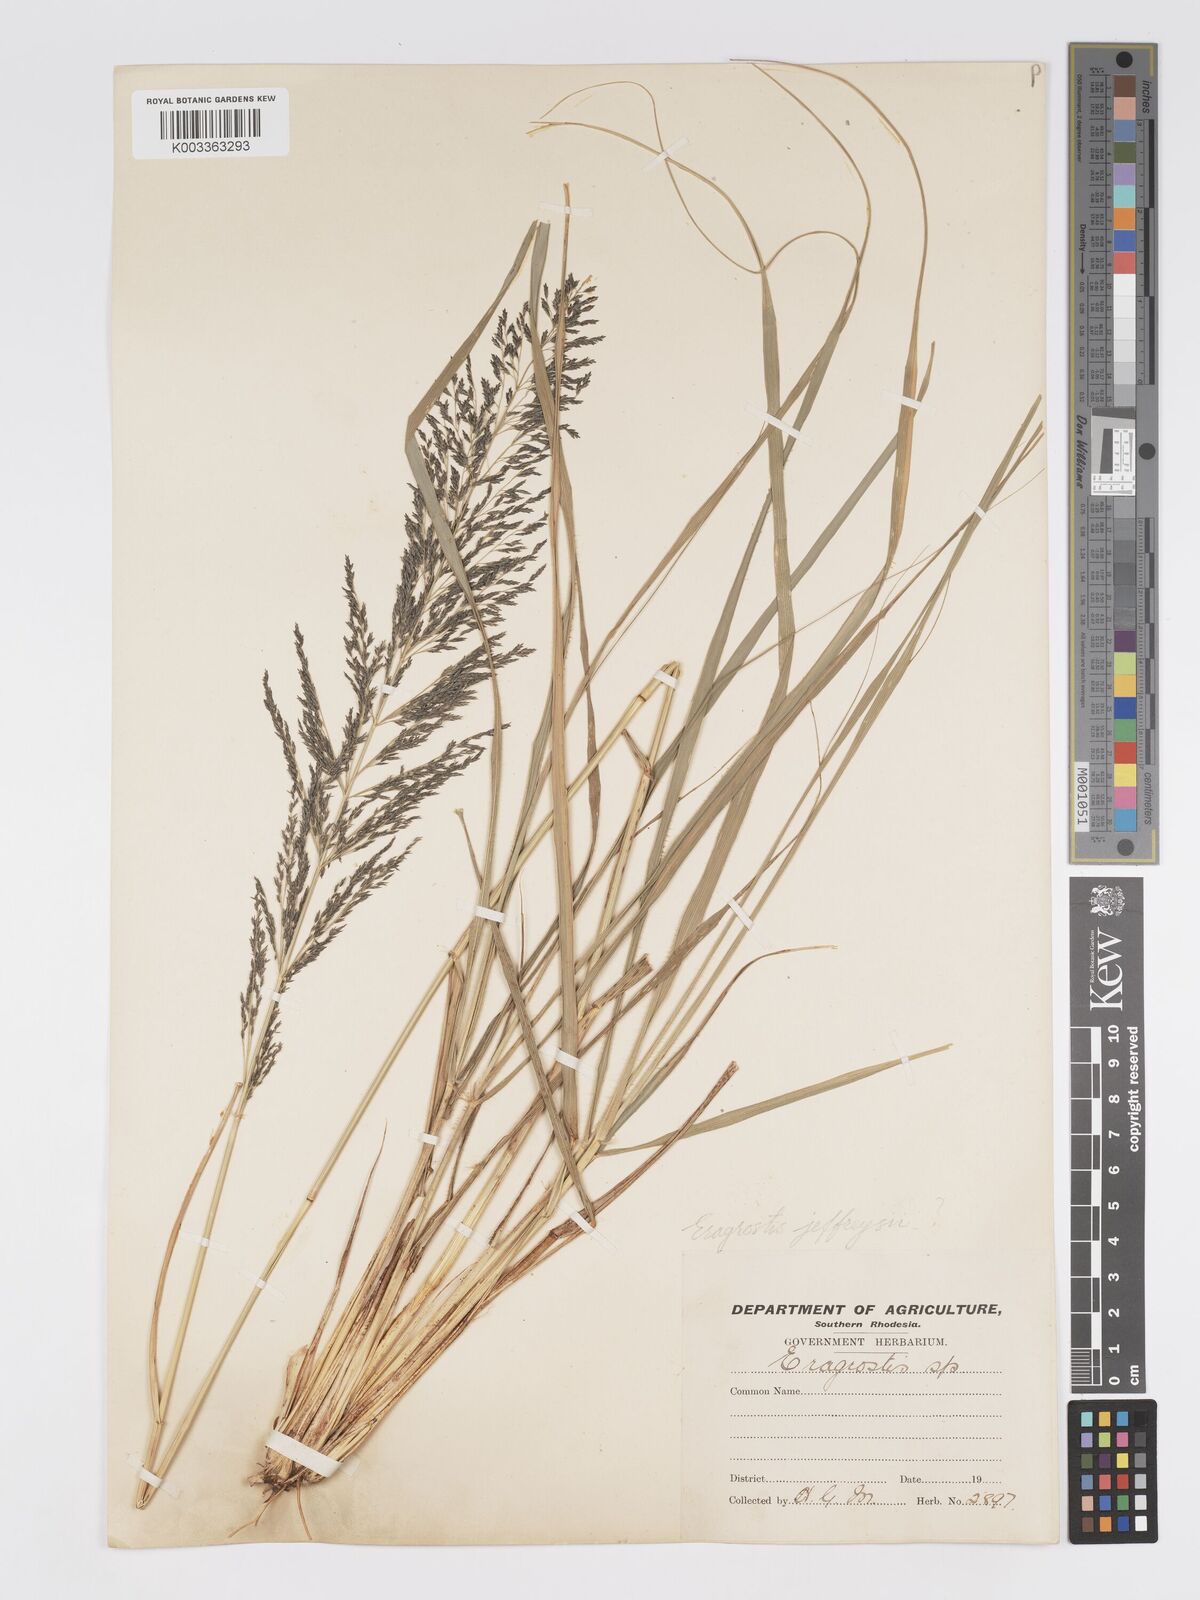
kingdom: Plantae
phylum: Tracheophyta
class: Liliopsida
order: Poales
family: Poaceae
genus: Eragrostis
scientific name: Eragrostis curvula
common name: African love-grass
